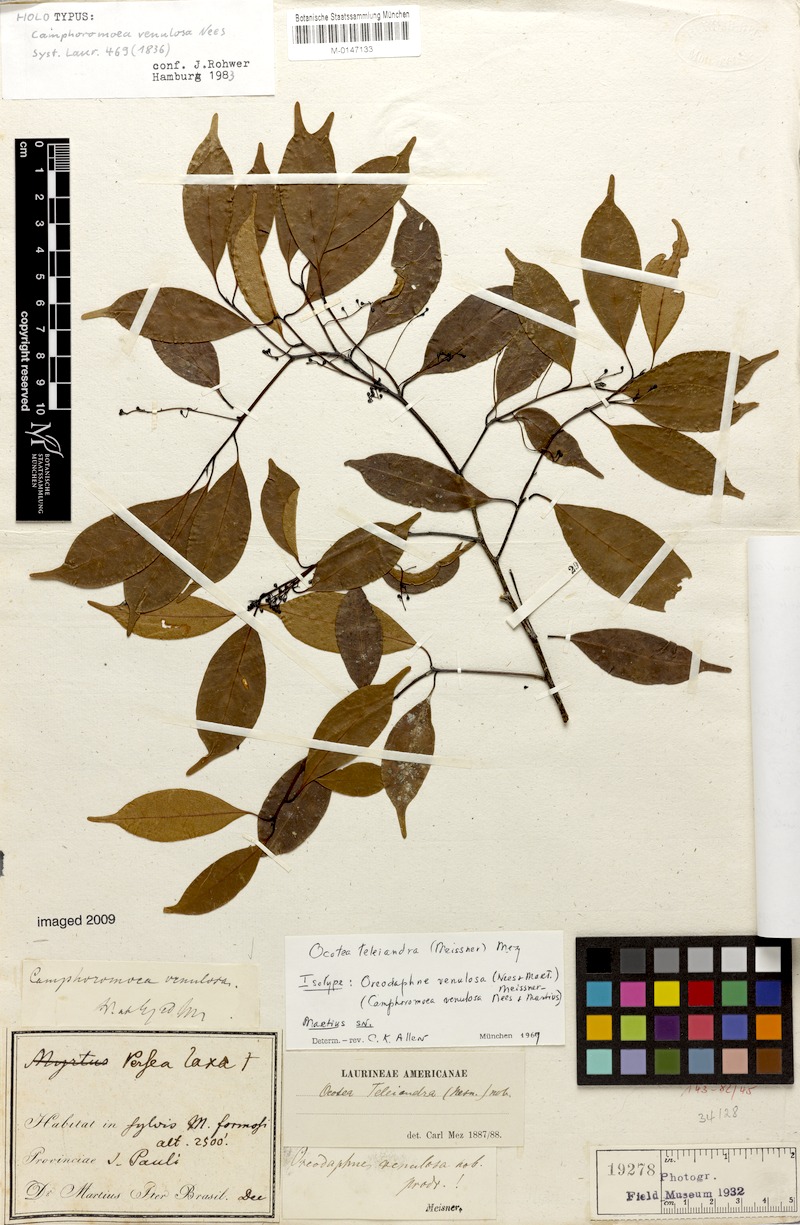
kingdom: Plantae
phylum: Tracheophyta
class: Magnoliopsida
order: Laurales
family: Lauraceae
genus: Ocotea
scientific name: Ocotea teleiandra
